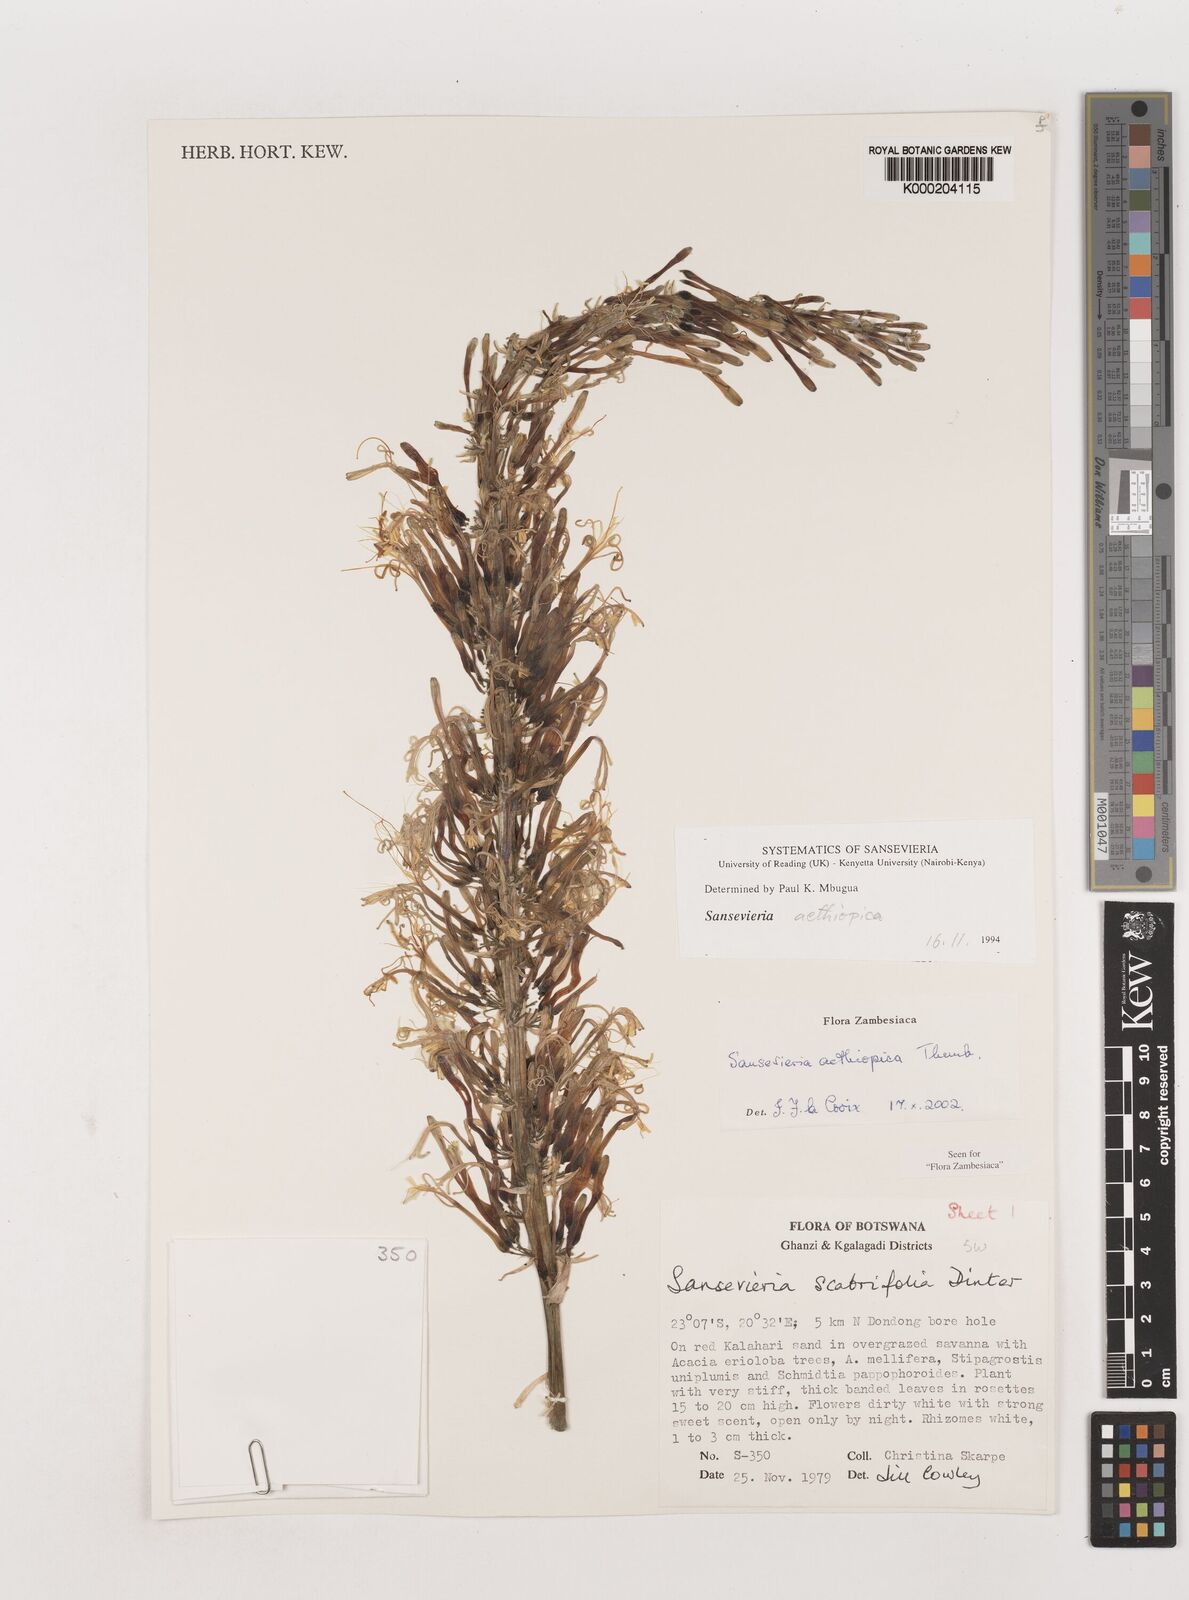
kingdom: Plantae
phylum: Tracheophyta
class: Liliopsida
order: Asparagales
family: Asparagaceae
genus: Dracaena
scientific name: Dracaena aethiopica
